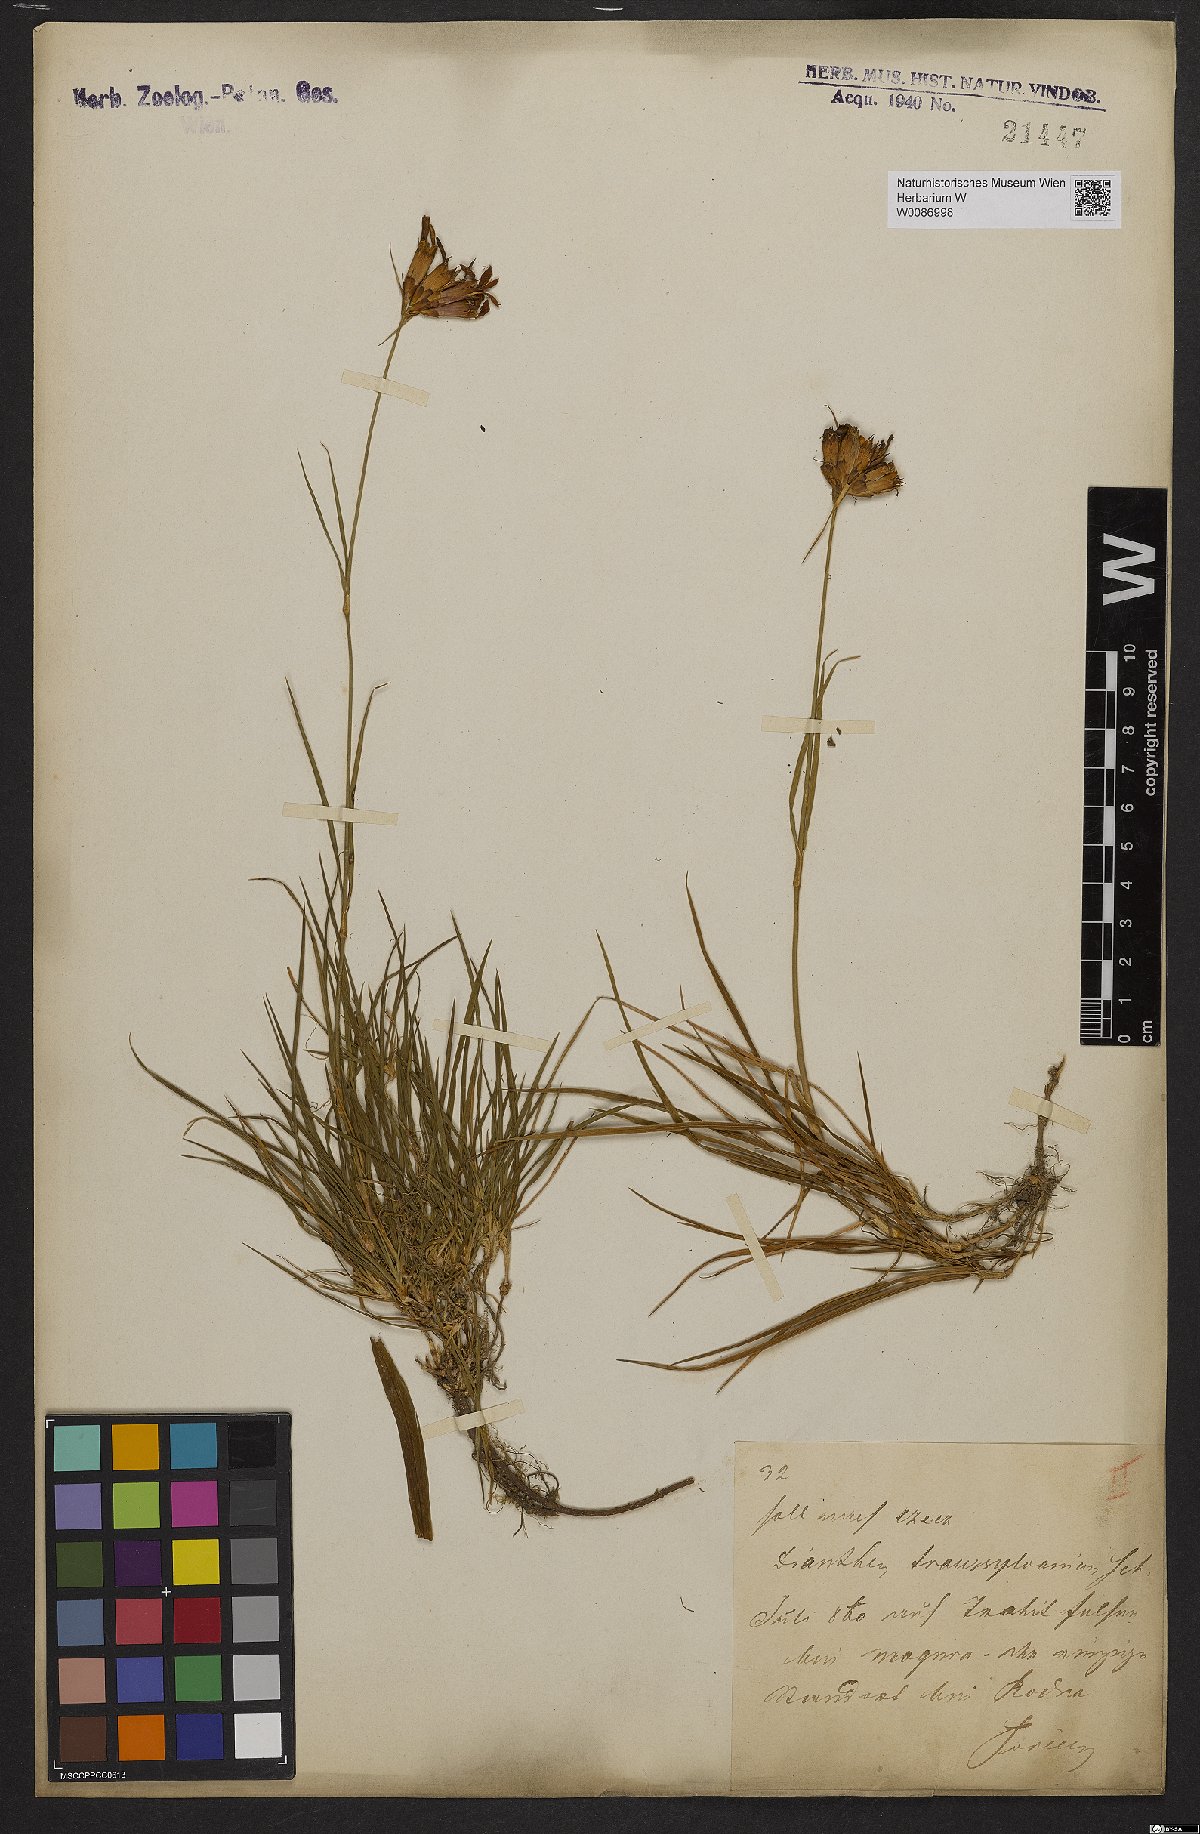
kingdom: Plantae
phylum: Tracheophyta
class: Magnoliopsida
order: Caryophyllales
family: Caryophyllaceae
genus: Dianthus
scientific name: Dianthus trifasciculatus
